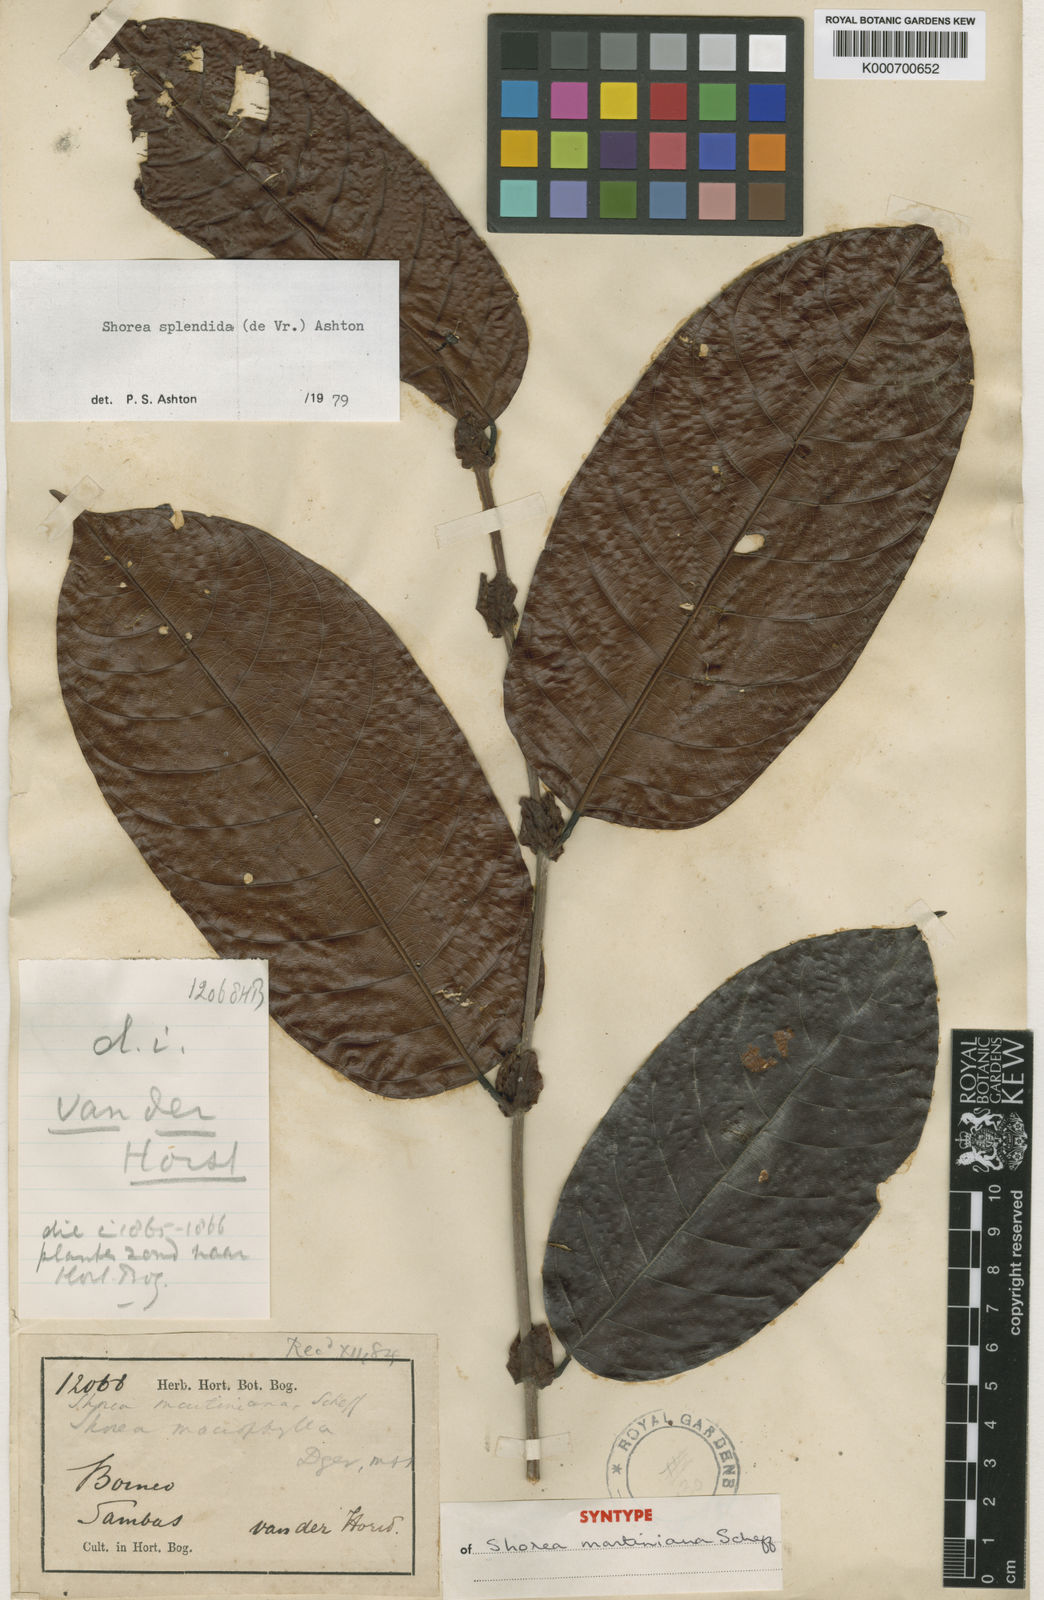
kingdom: Plantae
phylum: Tracheophyta
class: Magnoliopsida
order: Malvales
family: Dipterocarpaceae
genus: Shorea
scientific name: Shorea splendida
